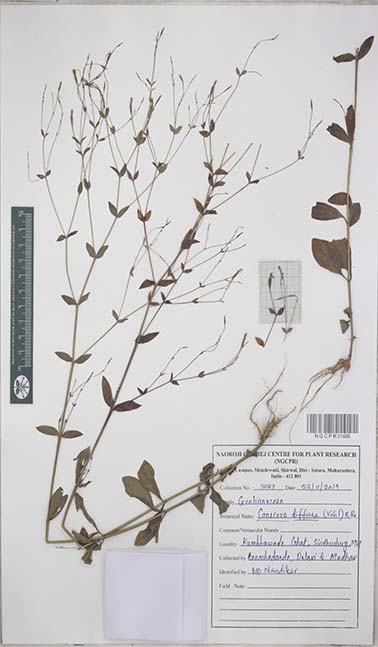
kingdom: Plantae
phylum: Tracheophyta
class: Magnoliopsida
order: Gentianales
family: Gentianaceae
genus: Canscora
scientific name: Canscora diffusa
